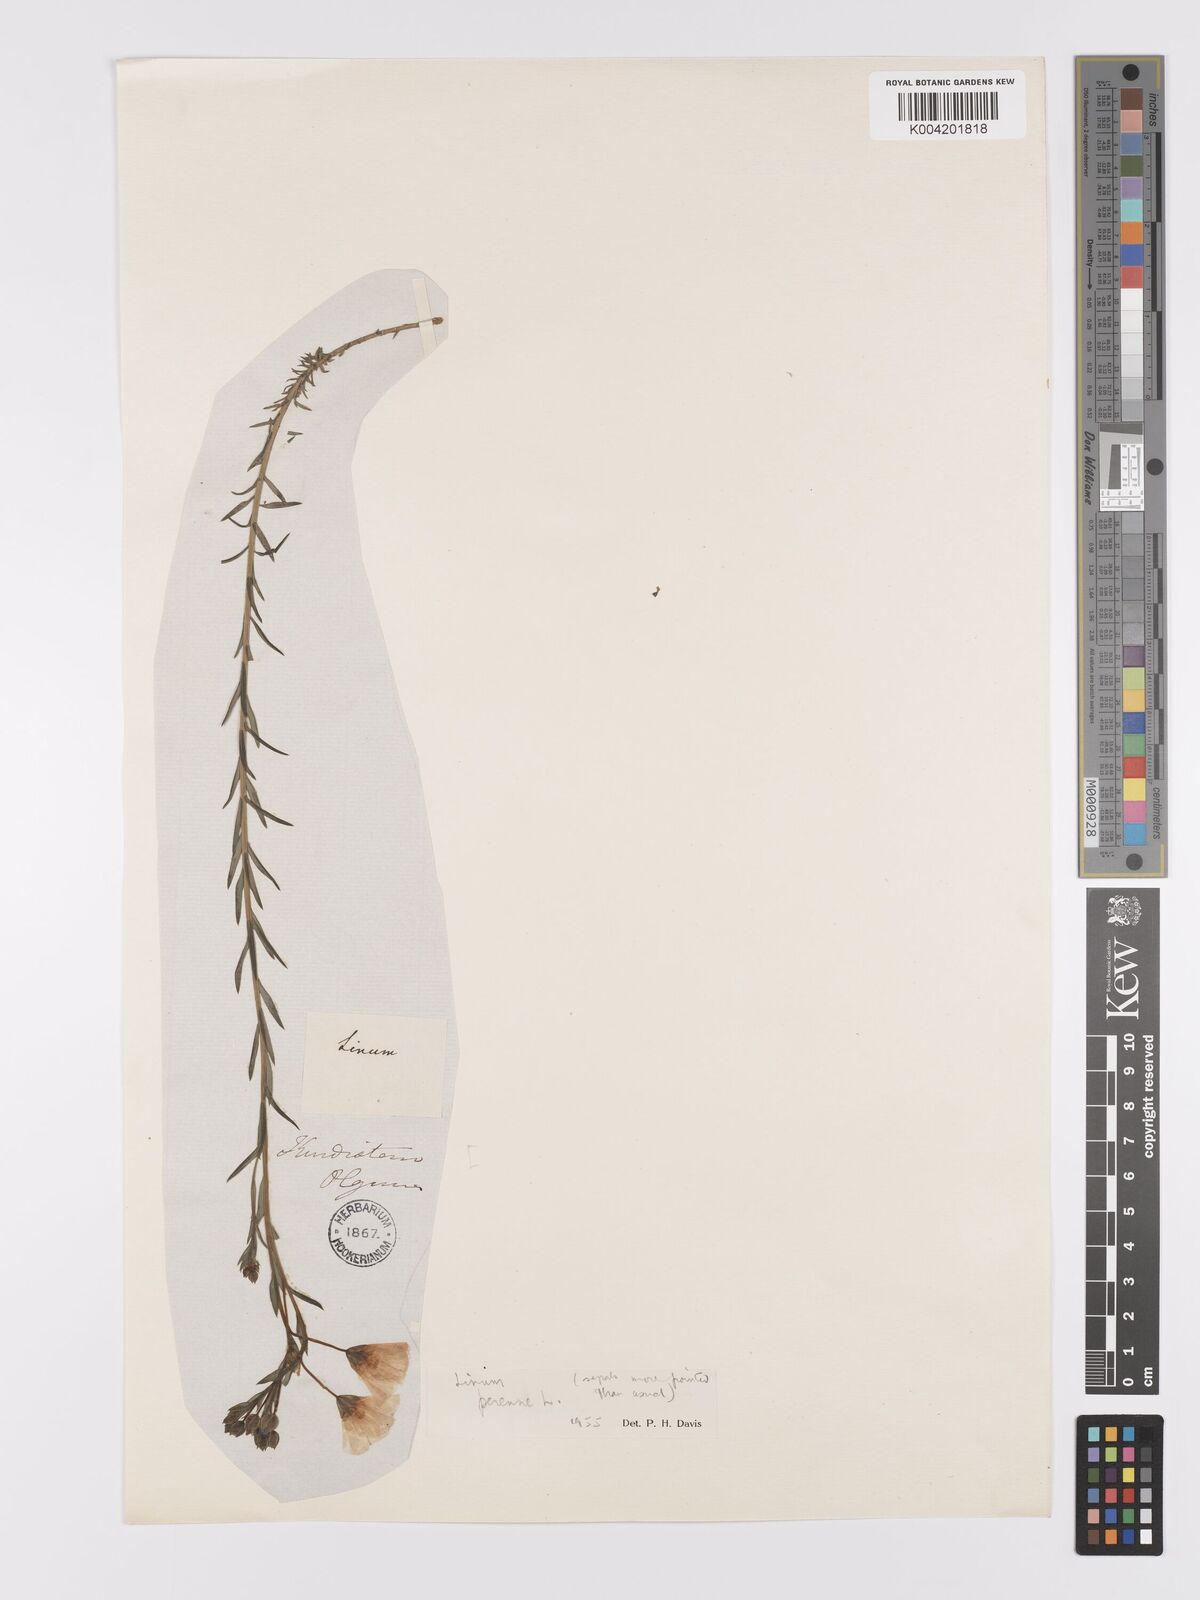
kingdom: Plantae
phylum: Tracheophyta
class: Magnoliopsida
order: Malpighiales
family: Linaceae
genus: Linum
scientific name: Linum
